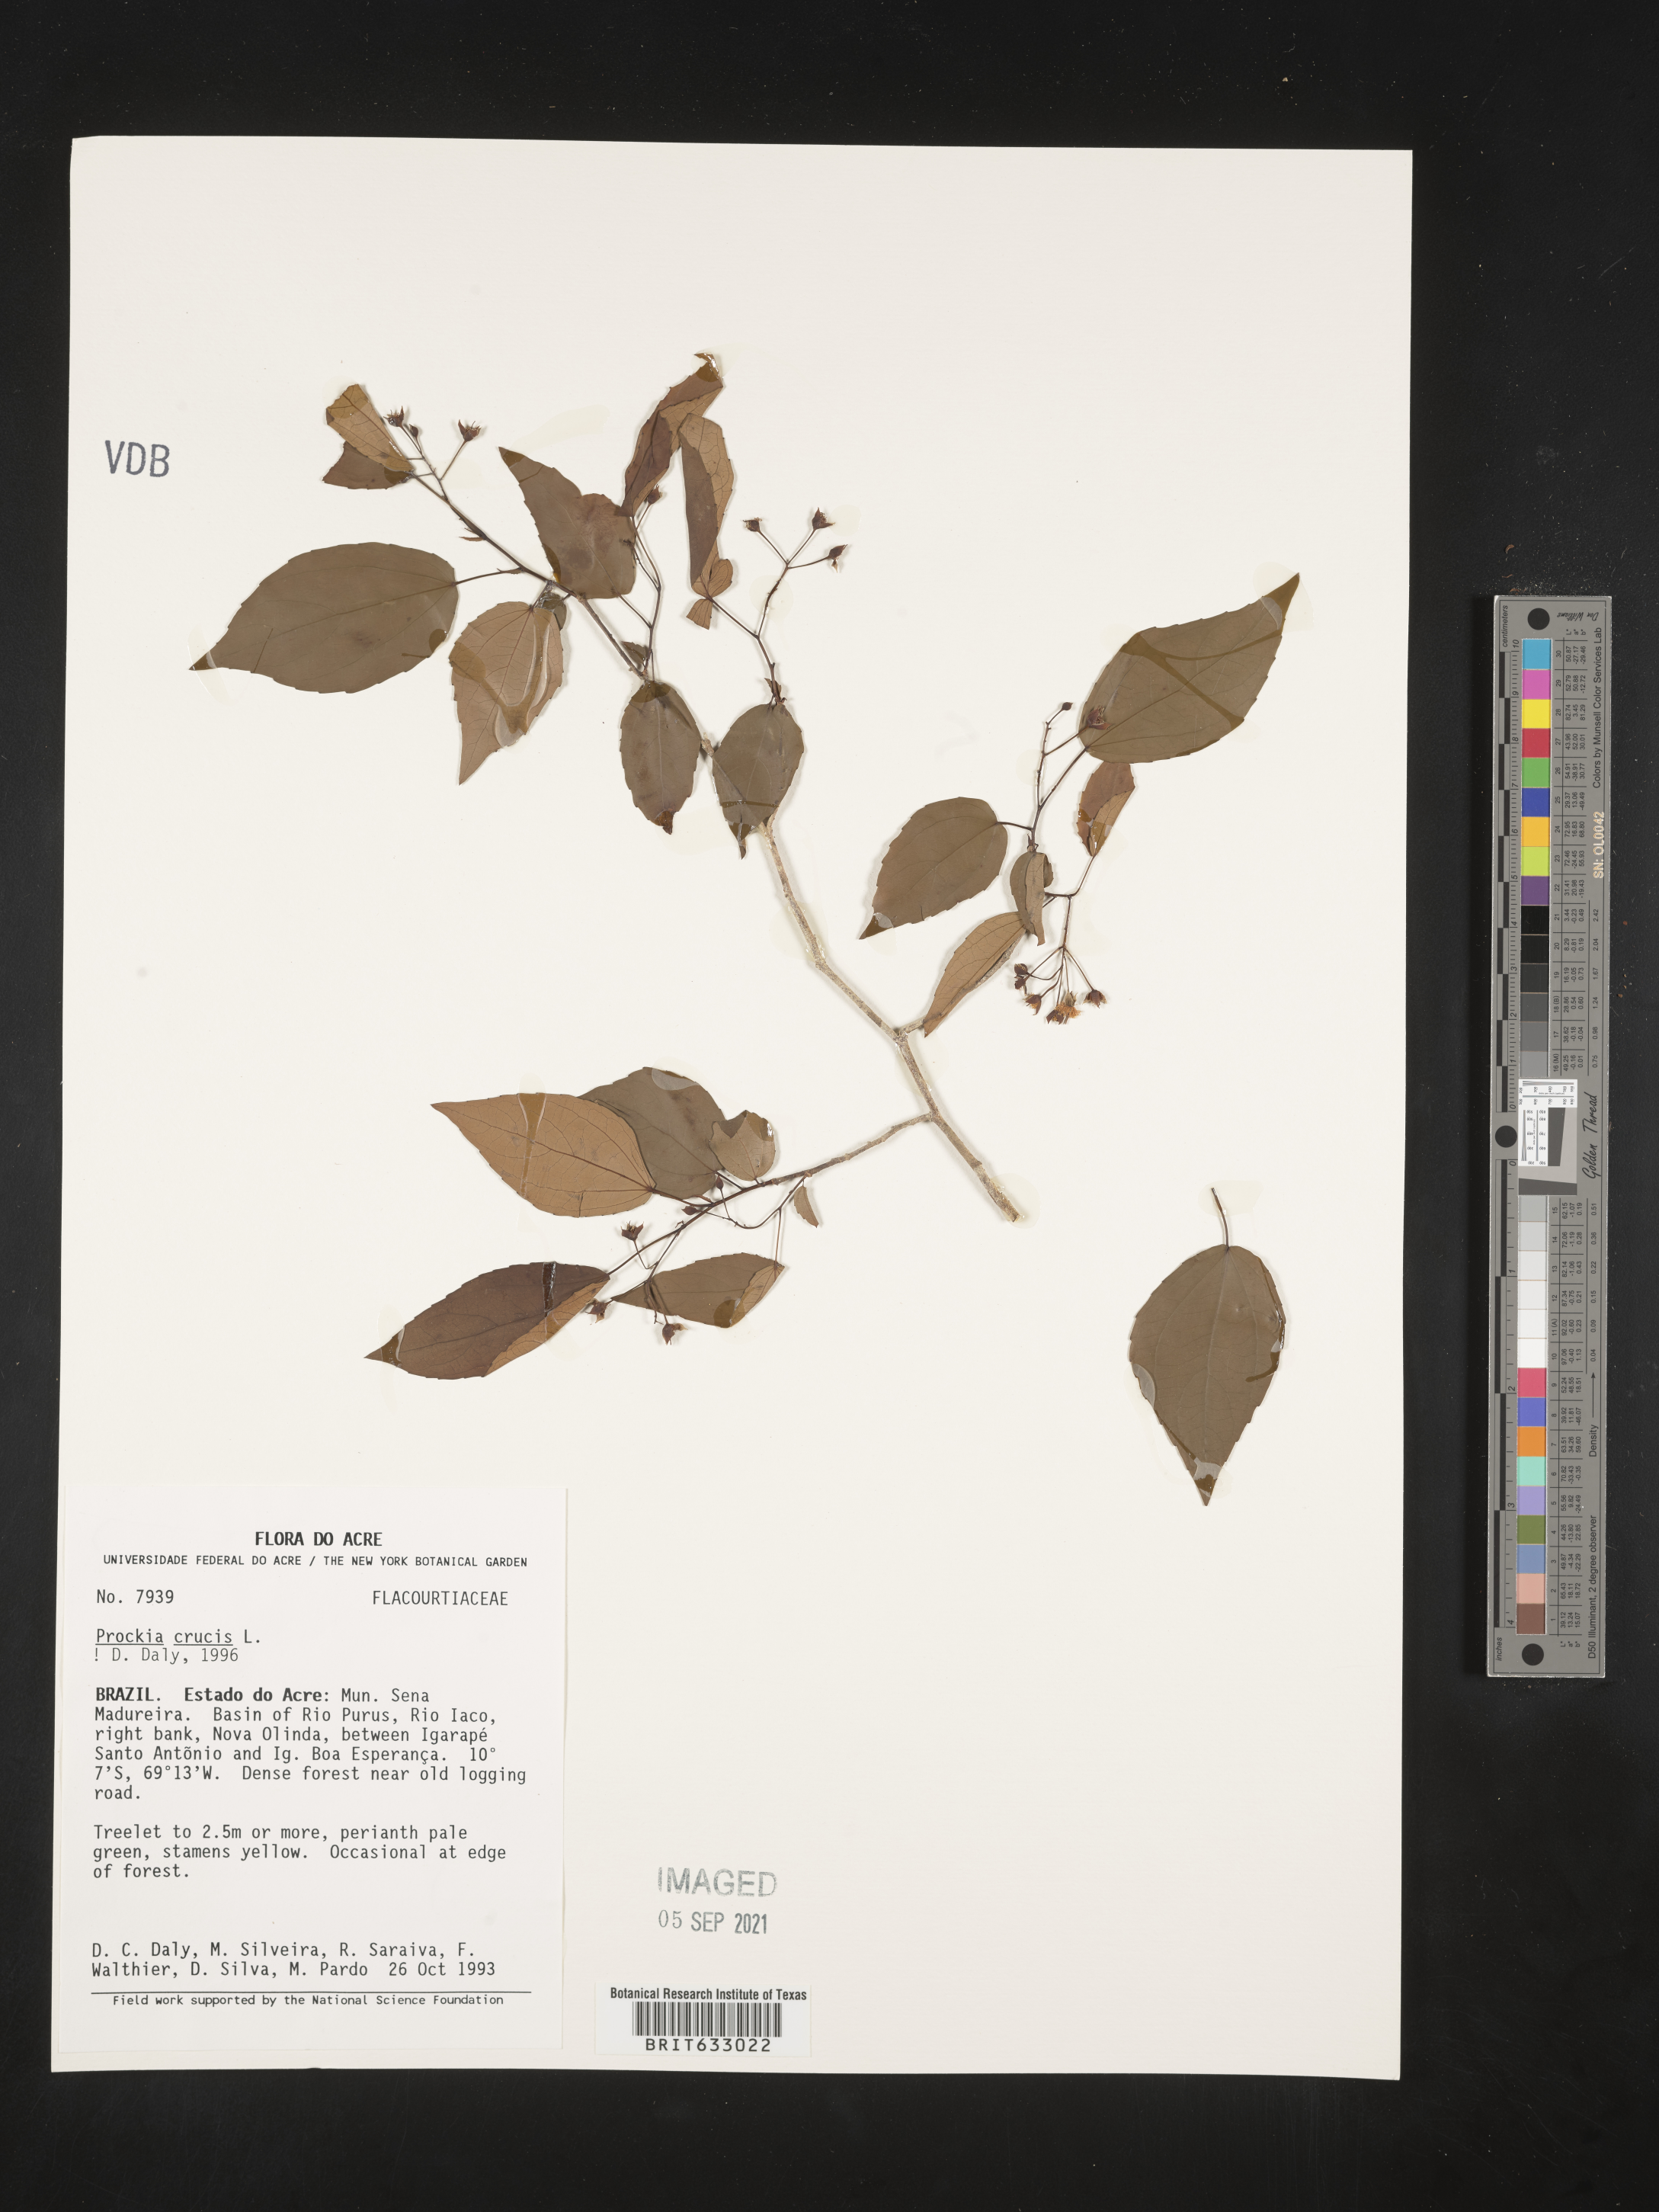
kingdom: Plantae
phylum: Tracheophyta
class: Magnoliopsida
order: Malpighiales
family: Salicaceae
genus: Prockia
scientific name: Prockia
